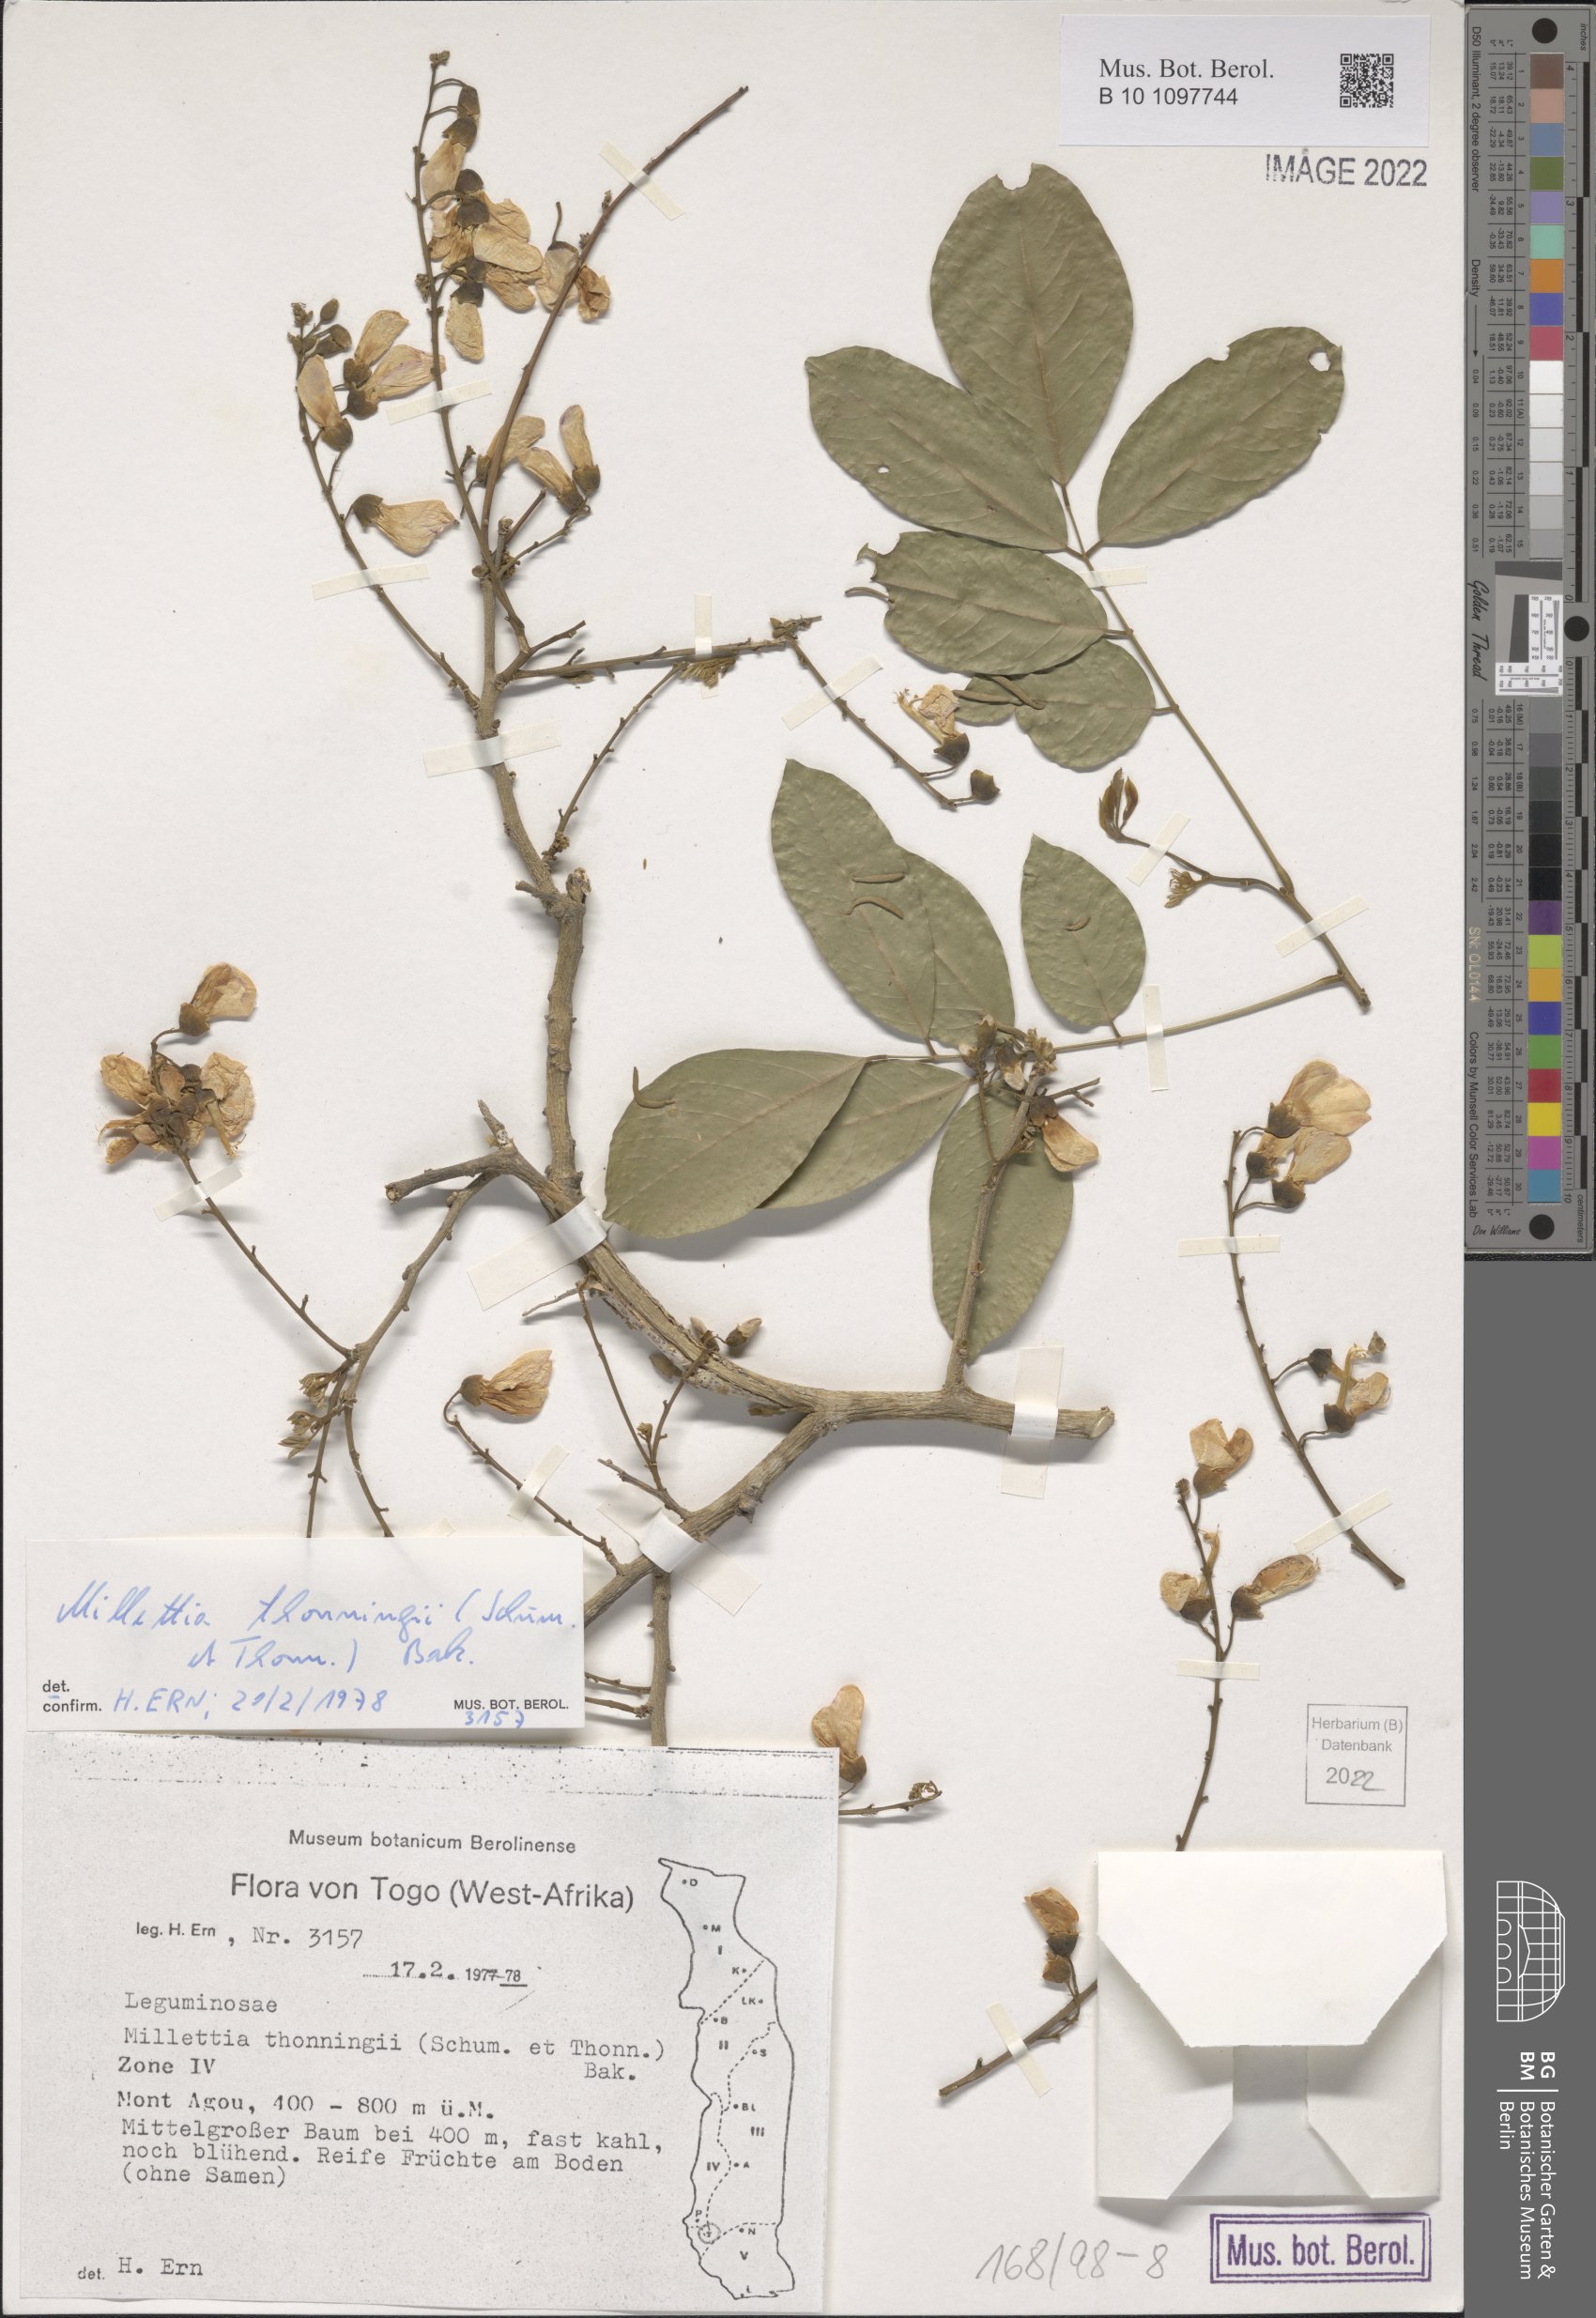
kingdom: Plantae
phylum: Tracheophyta
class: Magnoliopsida
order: Fabales
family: Fabaceae
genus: Millettia
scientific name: Millettia thonningii
